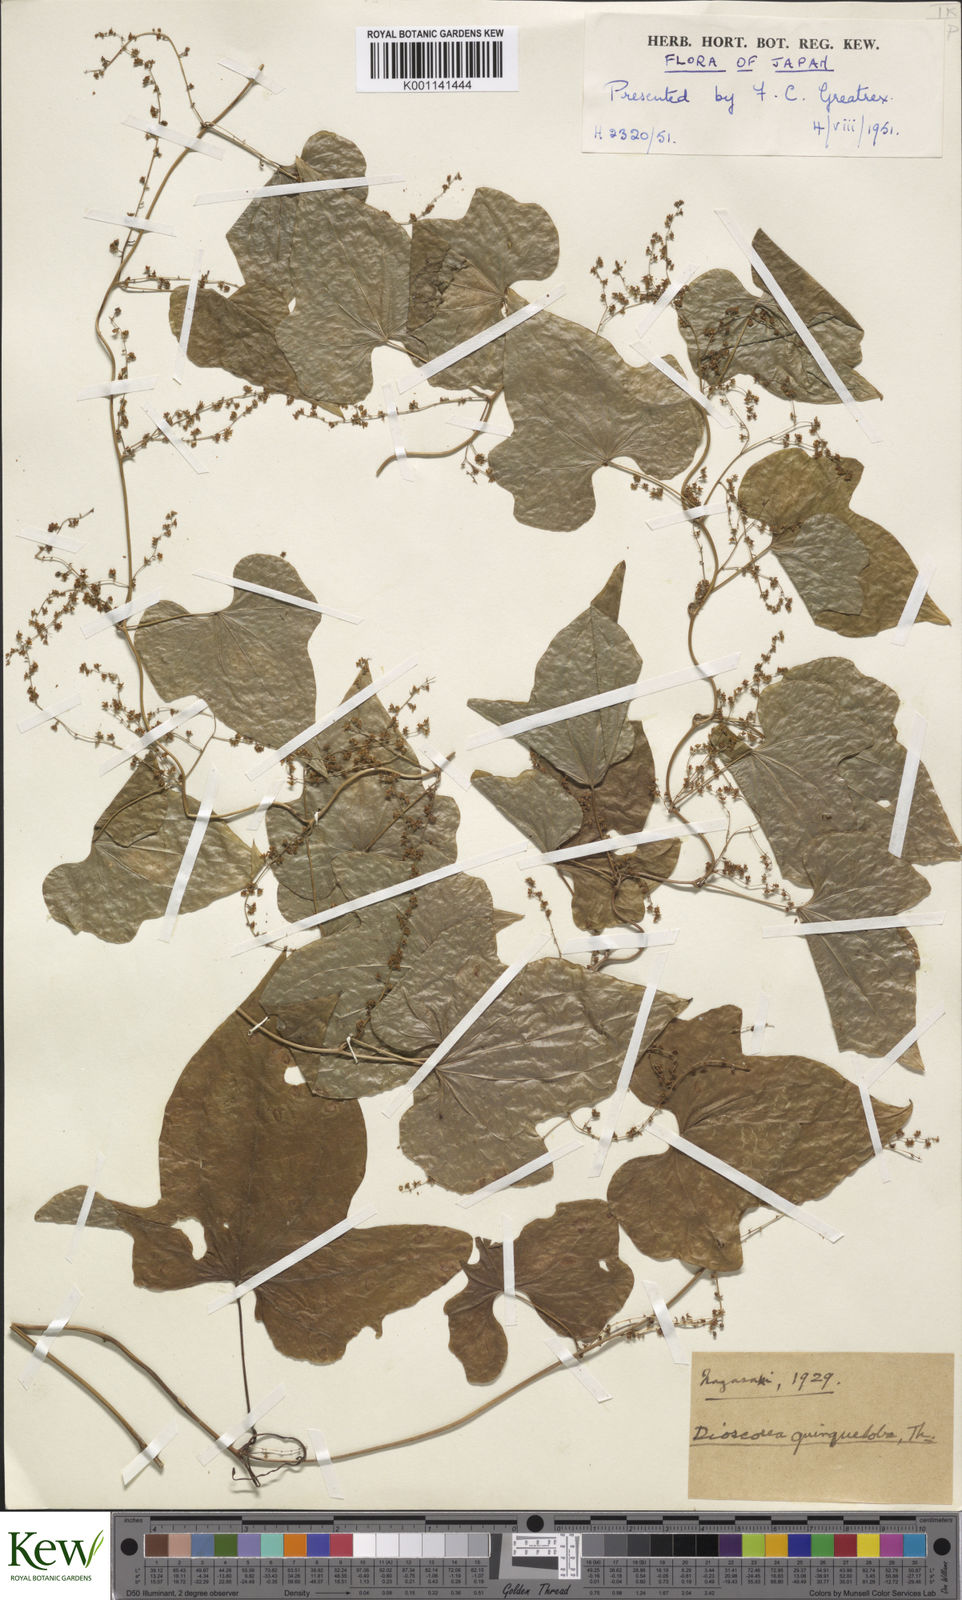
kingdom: Plantae
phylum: Tracheophyta
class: Liliopsida
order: Dioscoreales
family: Dioscoreaceae
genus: Dioscorea
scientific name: Dioscorea quinquelobata
